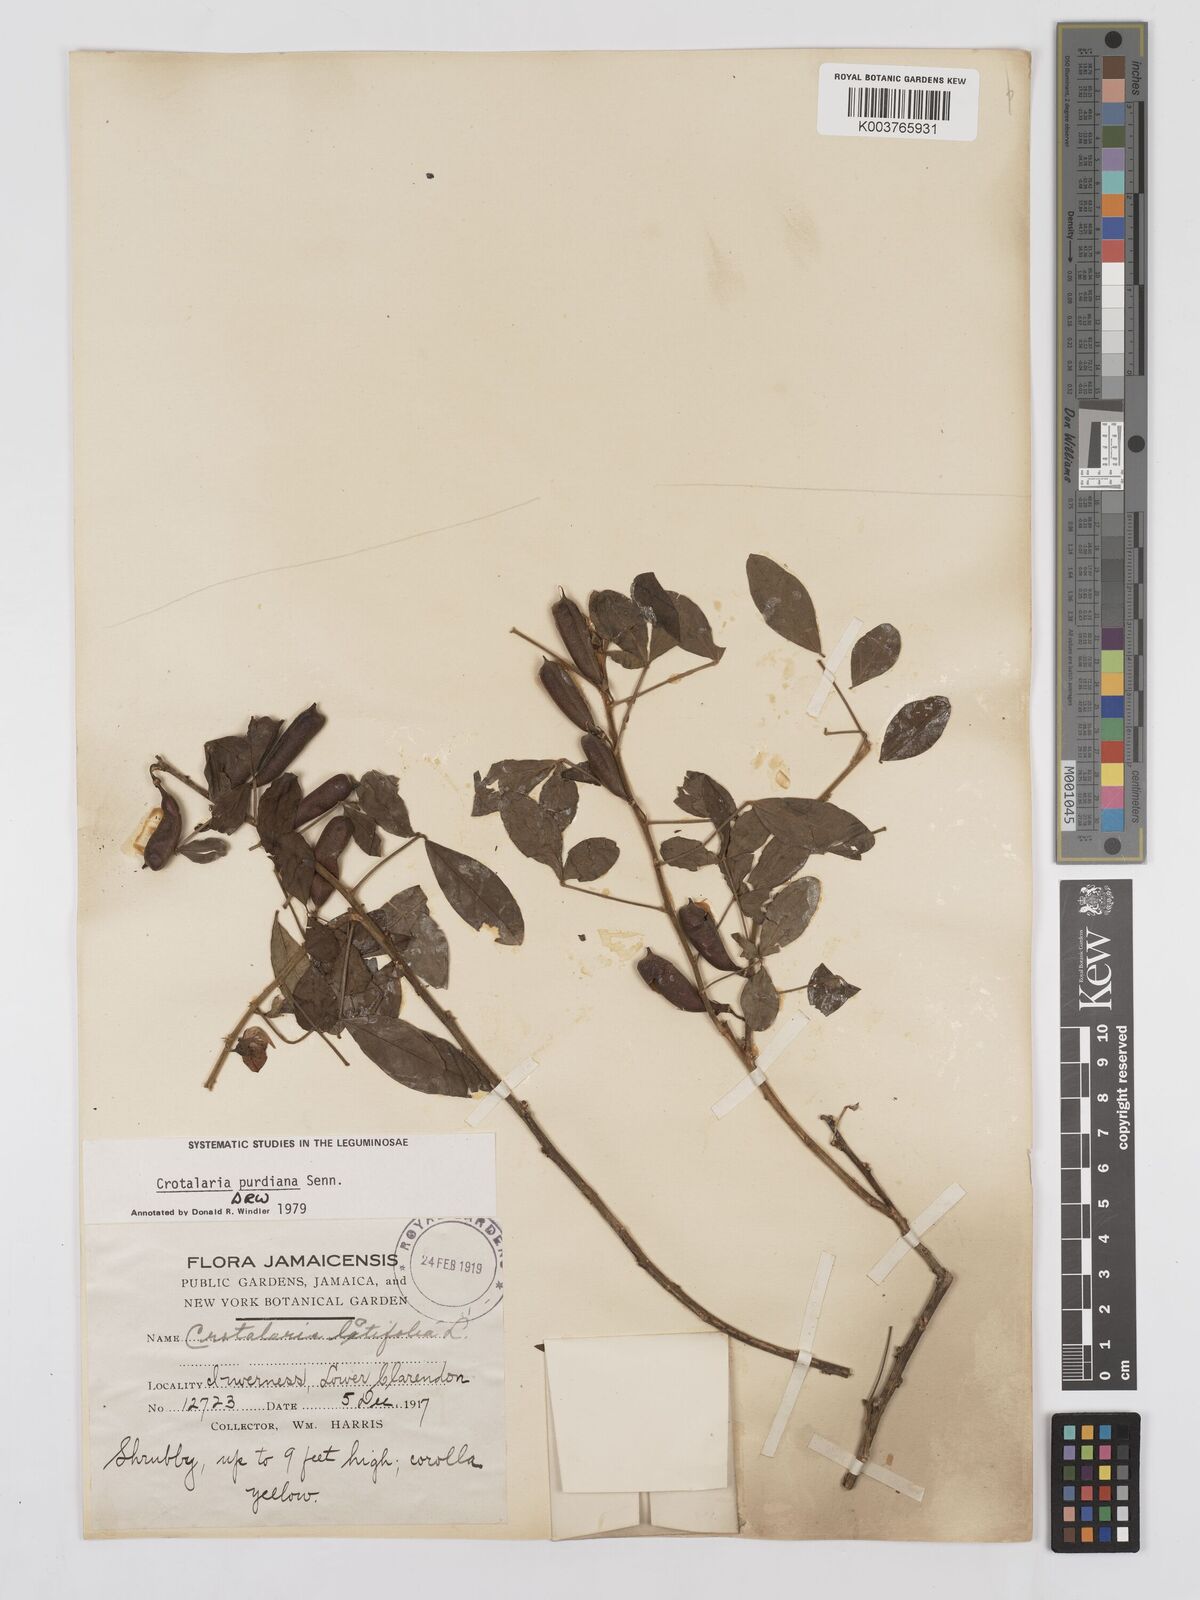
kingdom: Plantae
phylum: Tracheophyta
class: Magnoliopsida
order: Fabales
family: Fabaceae
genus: Crotalaria
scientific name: Crotalaria purdieana
